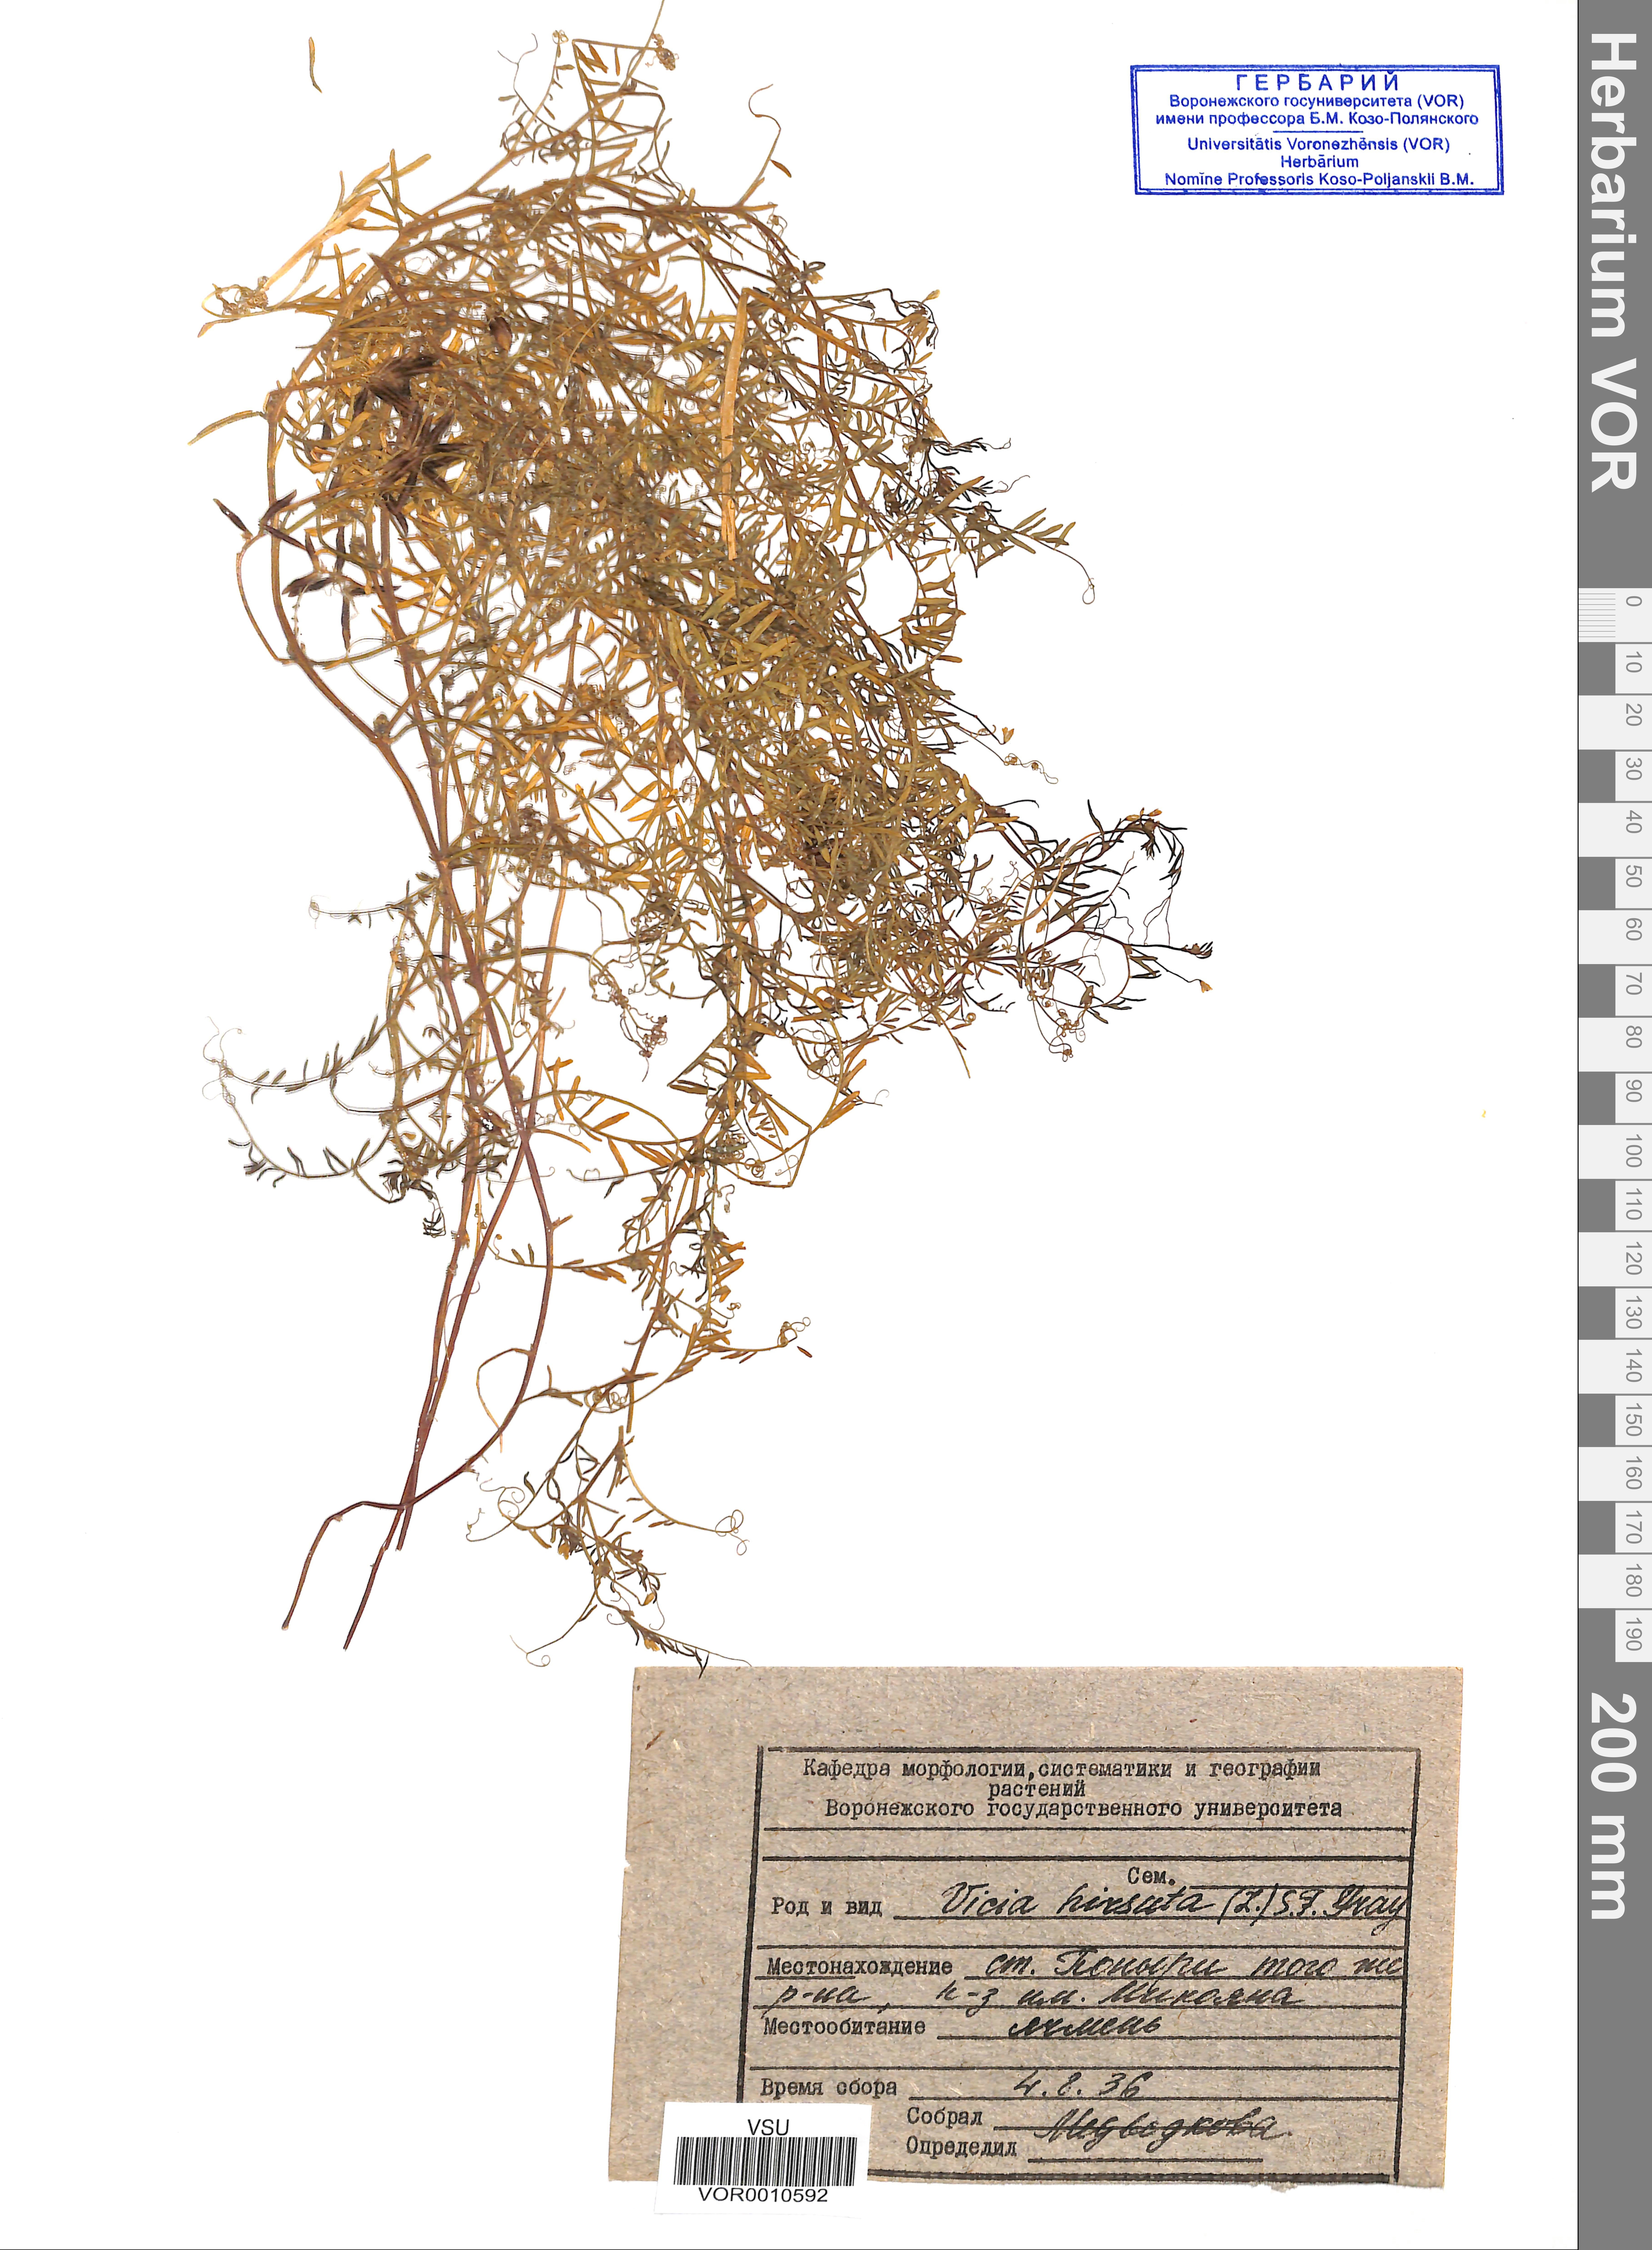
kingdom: Plantae
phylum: Tracheophyta
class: Magnoliopsida
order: Fabales
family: Fabaceae
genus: Vicia
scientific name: Vicia hirsuta
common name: Tiny vetch
